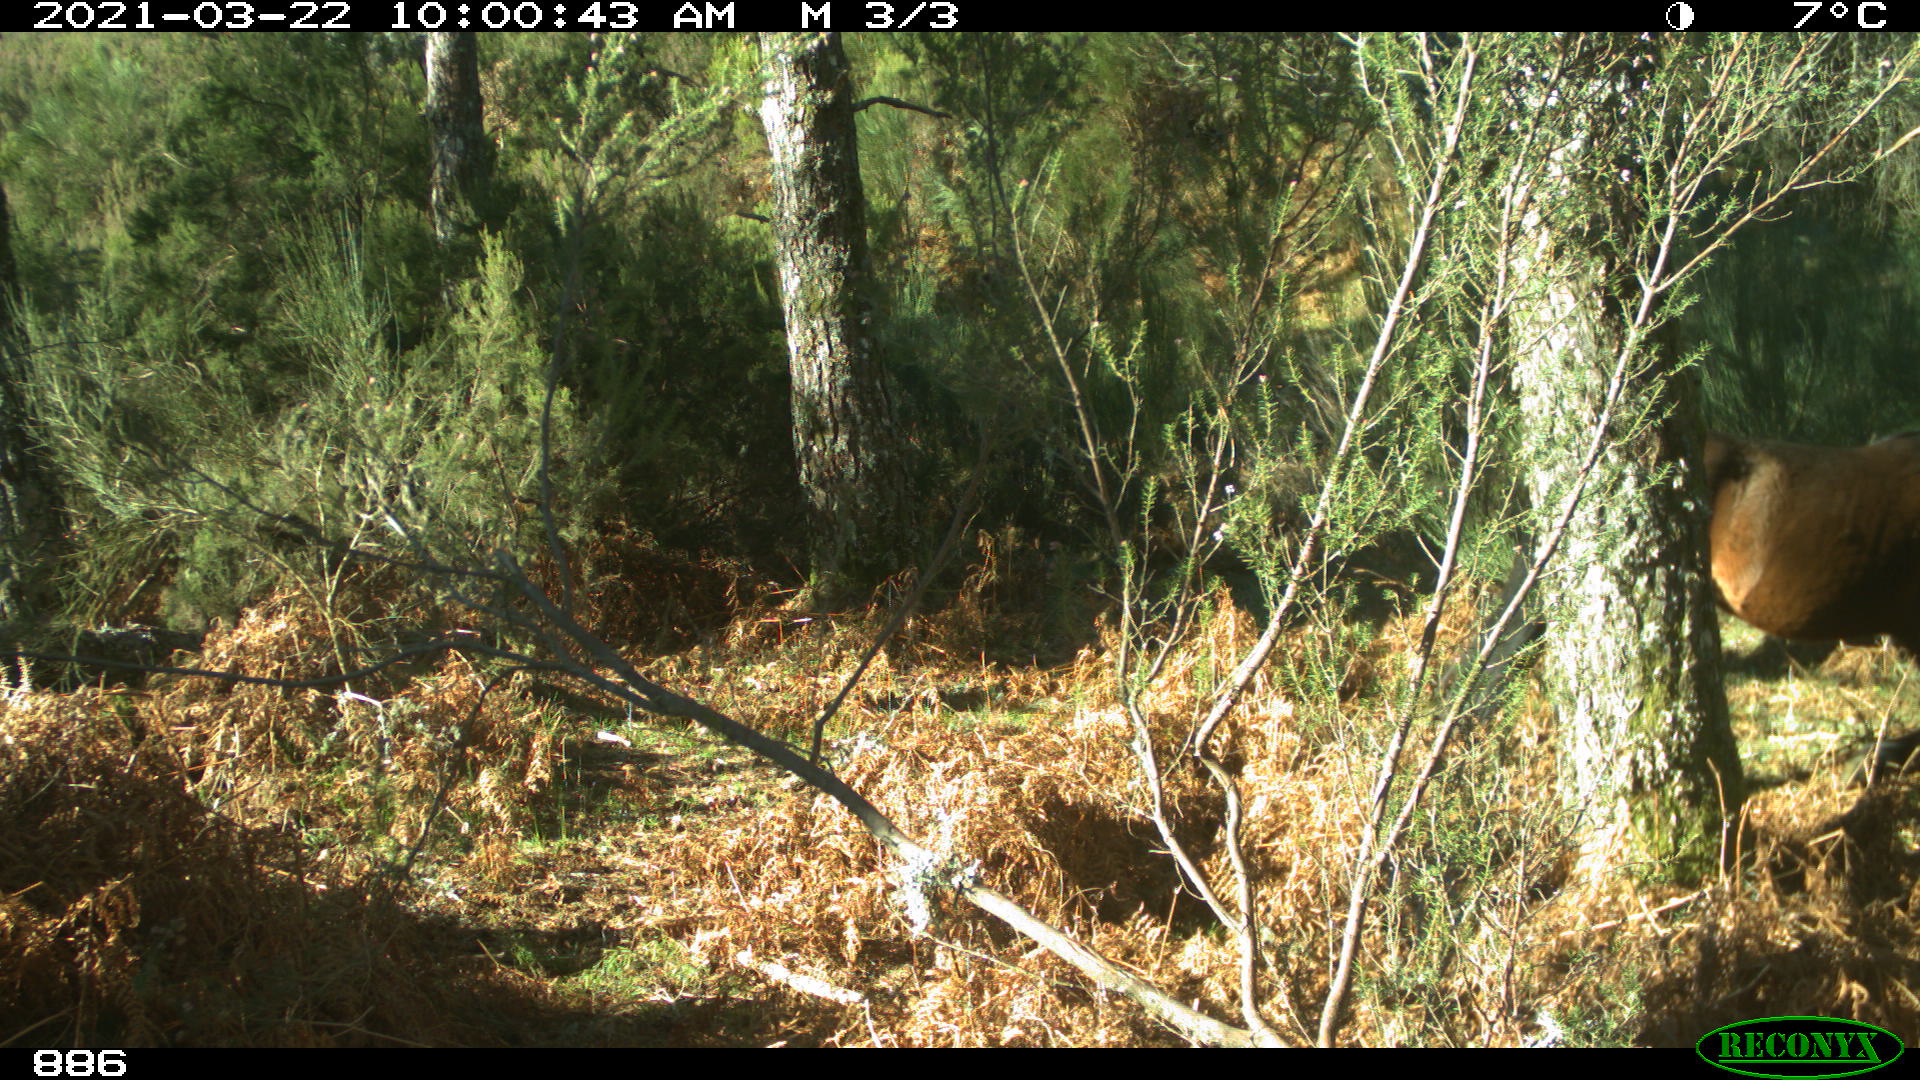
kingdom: Animalia
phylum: Chordata
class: Mammalia
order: Perissodactyla
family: Equidae
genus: Equus
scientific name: Equus caballus
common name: Horse
